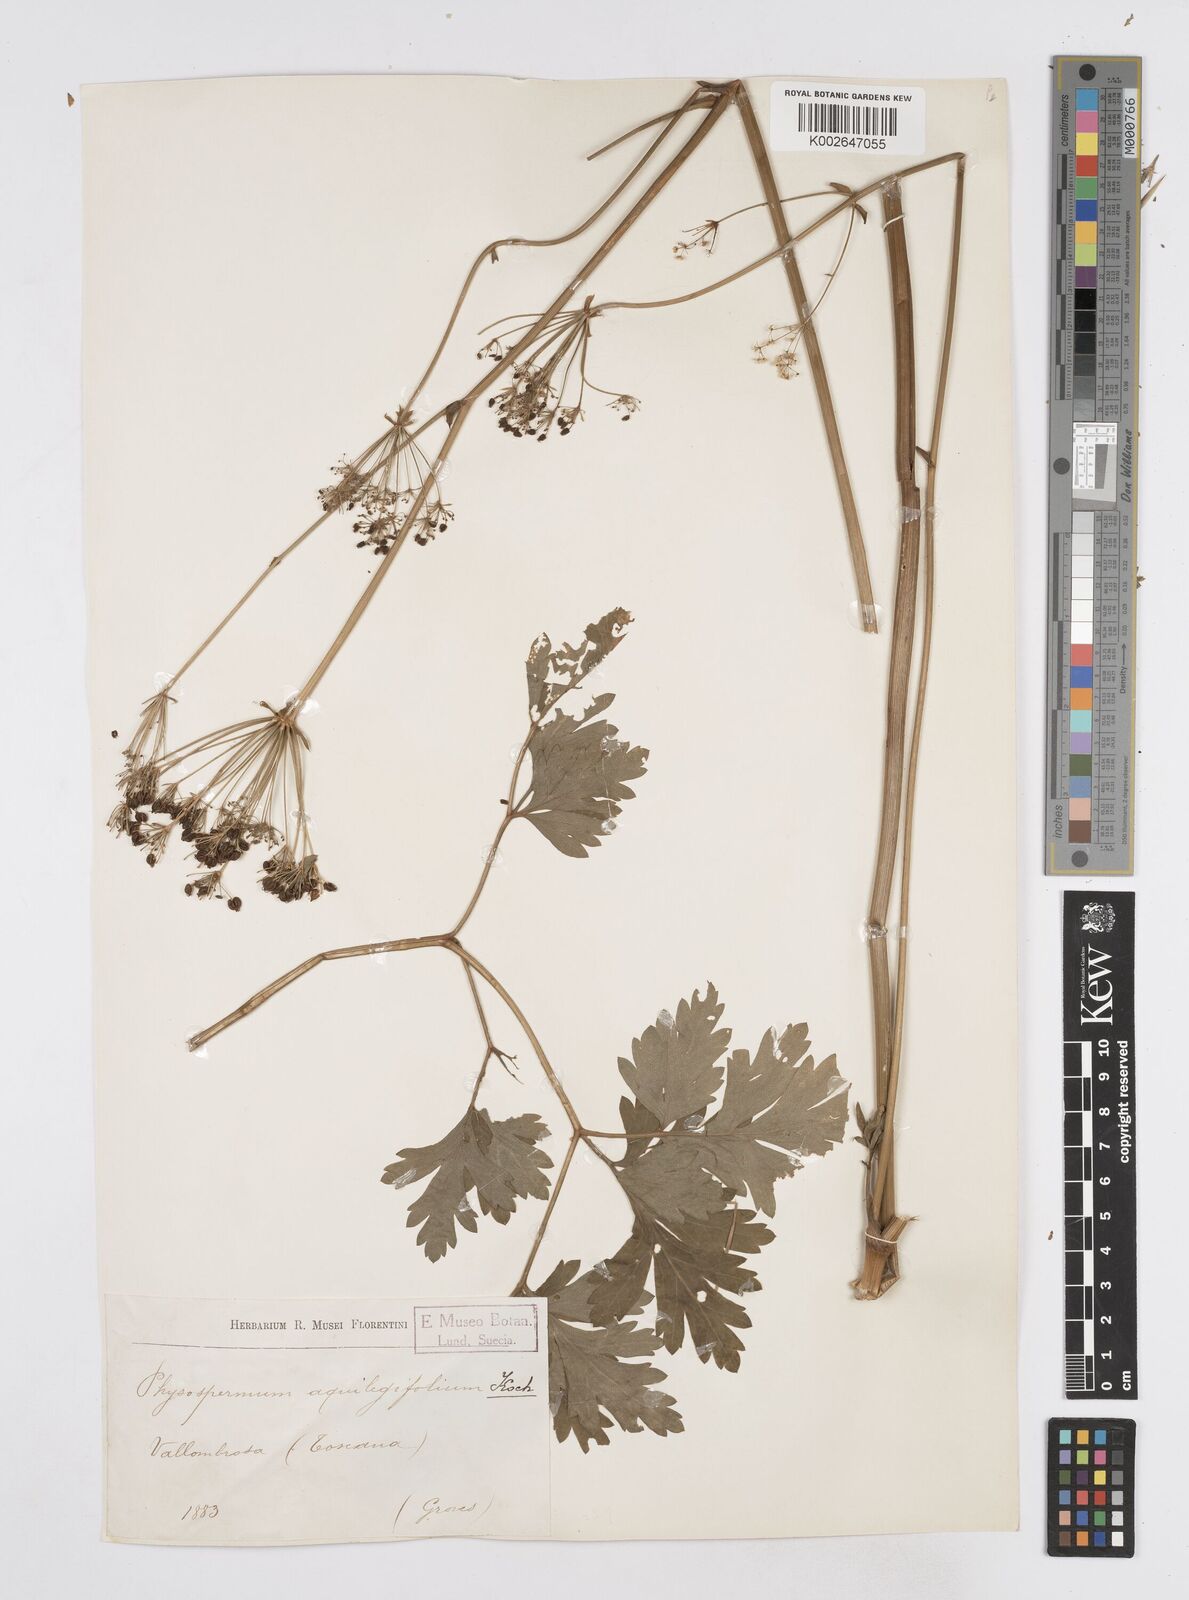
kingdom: Plantae
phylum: Tracheophyta
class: Magnoliopsida
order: Apiales
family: Apiaceae
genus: Physospermum
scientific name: Physospermum cornubiense
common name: Bladderseed
